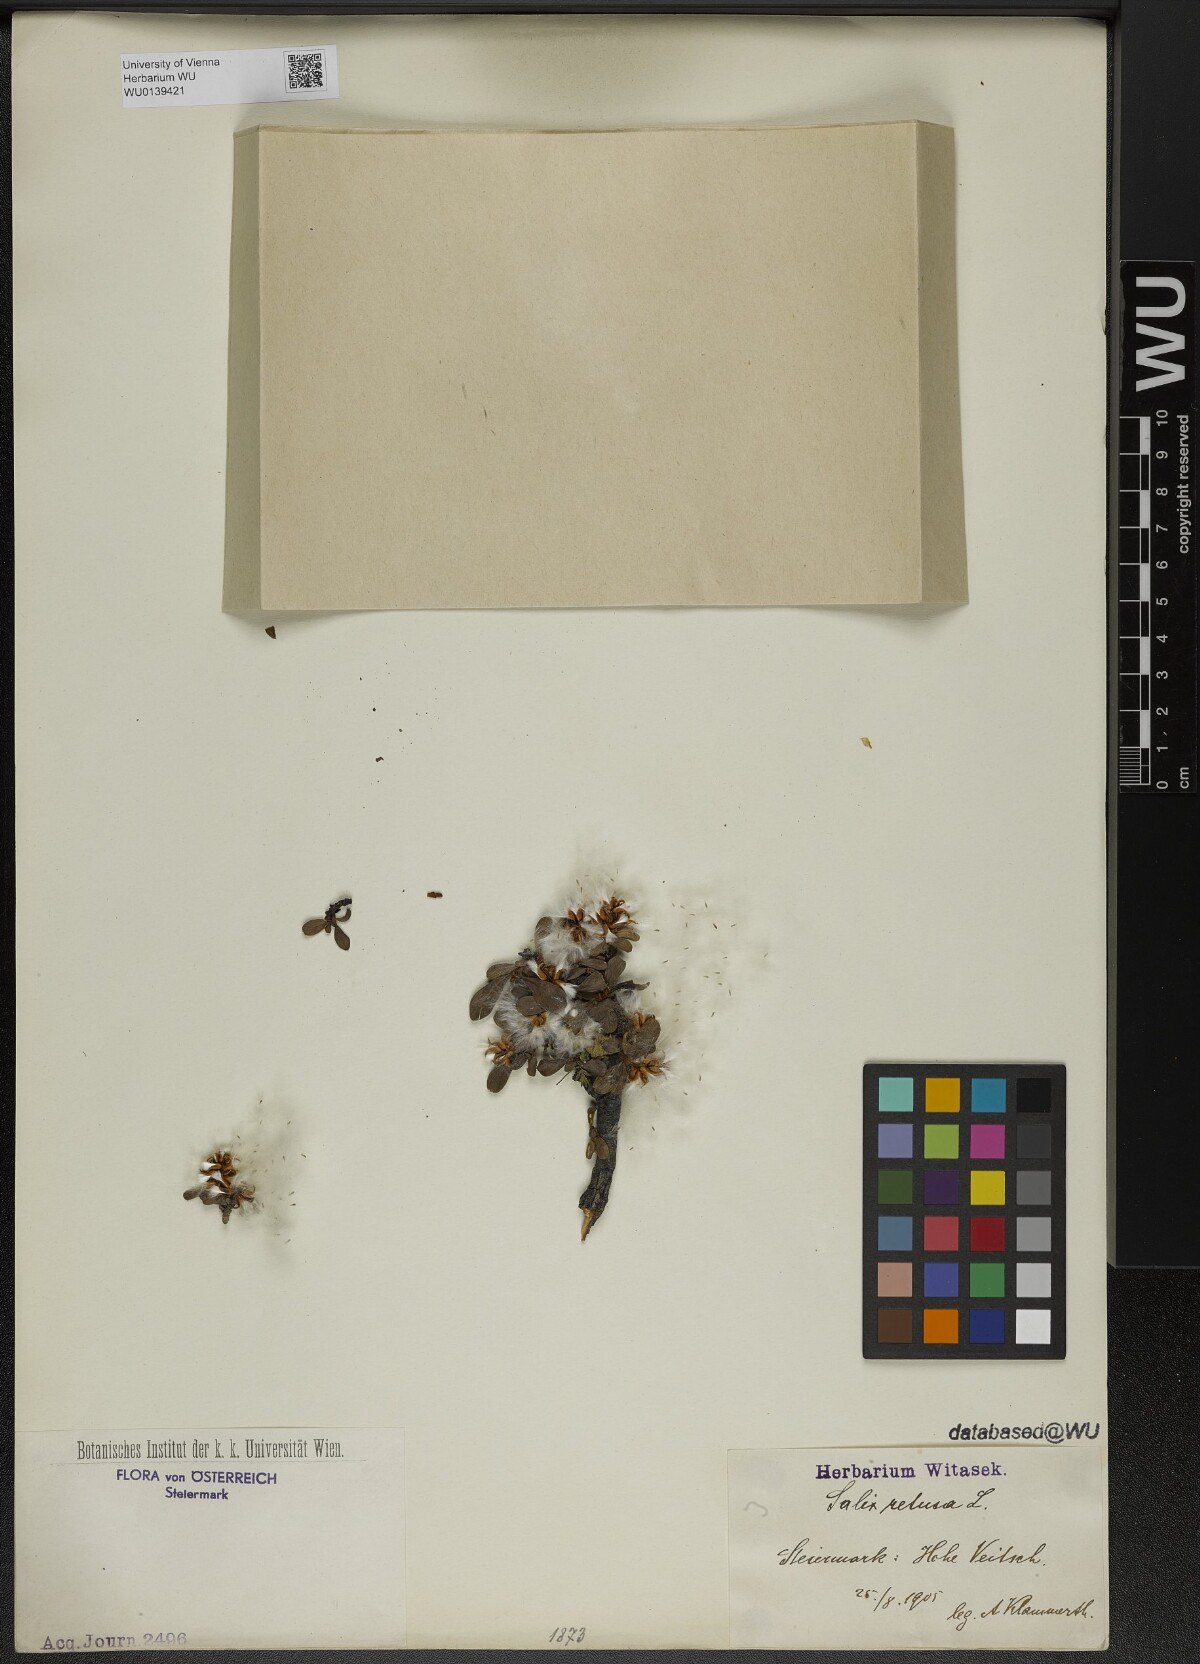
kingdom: Plantae
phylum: Tracheophyta
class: Magnoliopsida
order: Malpighiales
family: Salicaceae
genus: Salix
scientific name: Salix retusa
